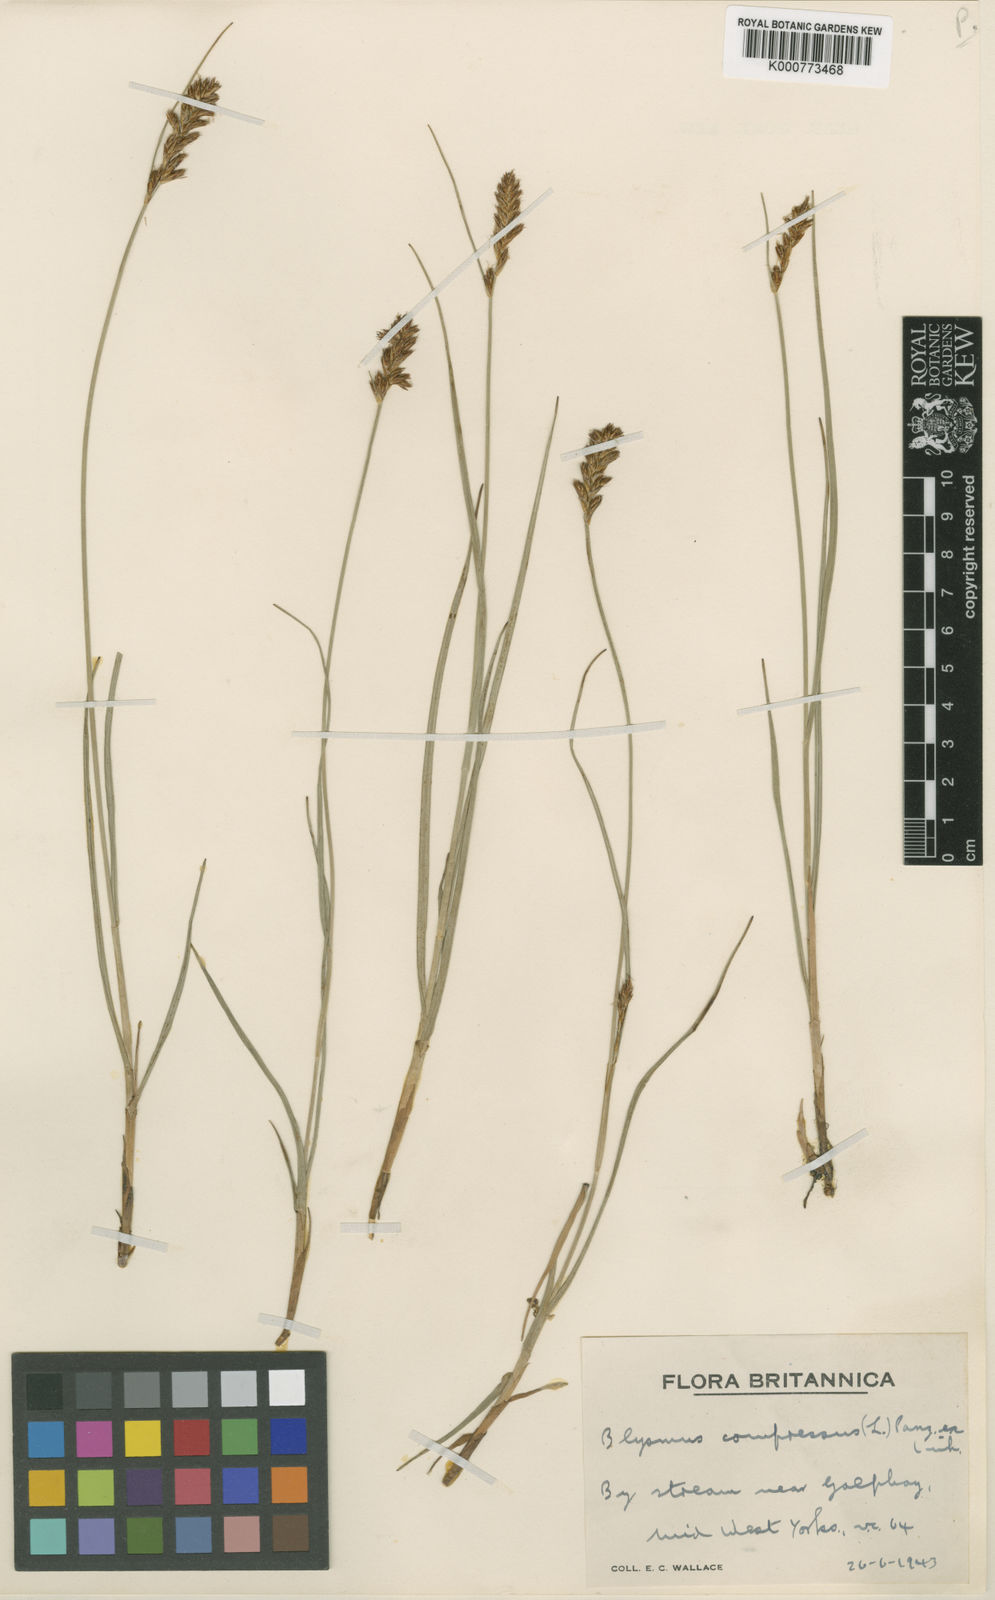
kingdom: Plantae
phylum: Tracheophyta
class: Liliopsida
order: Poales
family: Cyperaceae
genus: Blysmus
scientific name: Blysmus compressus
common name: Flat-sedge
